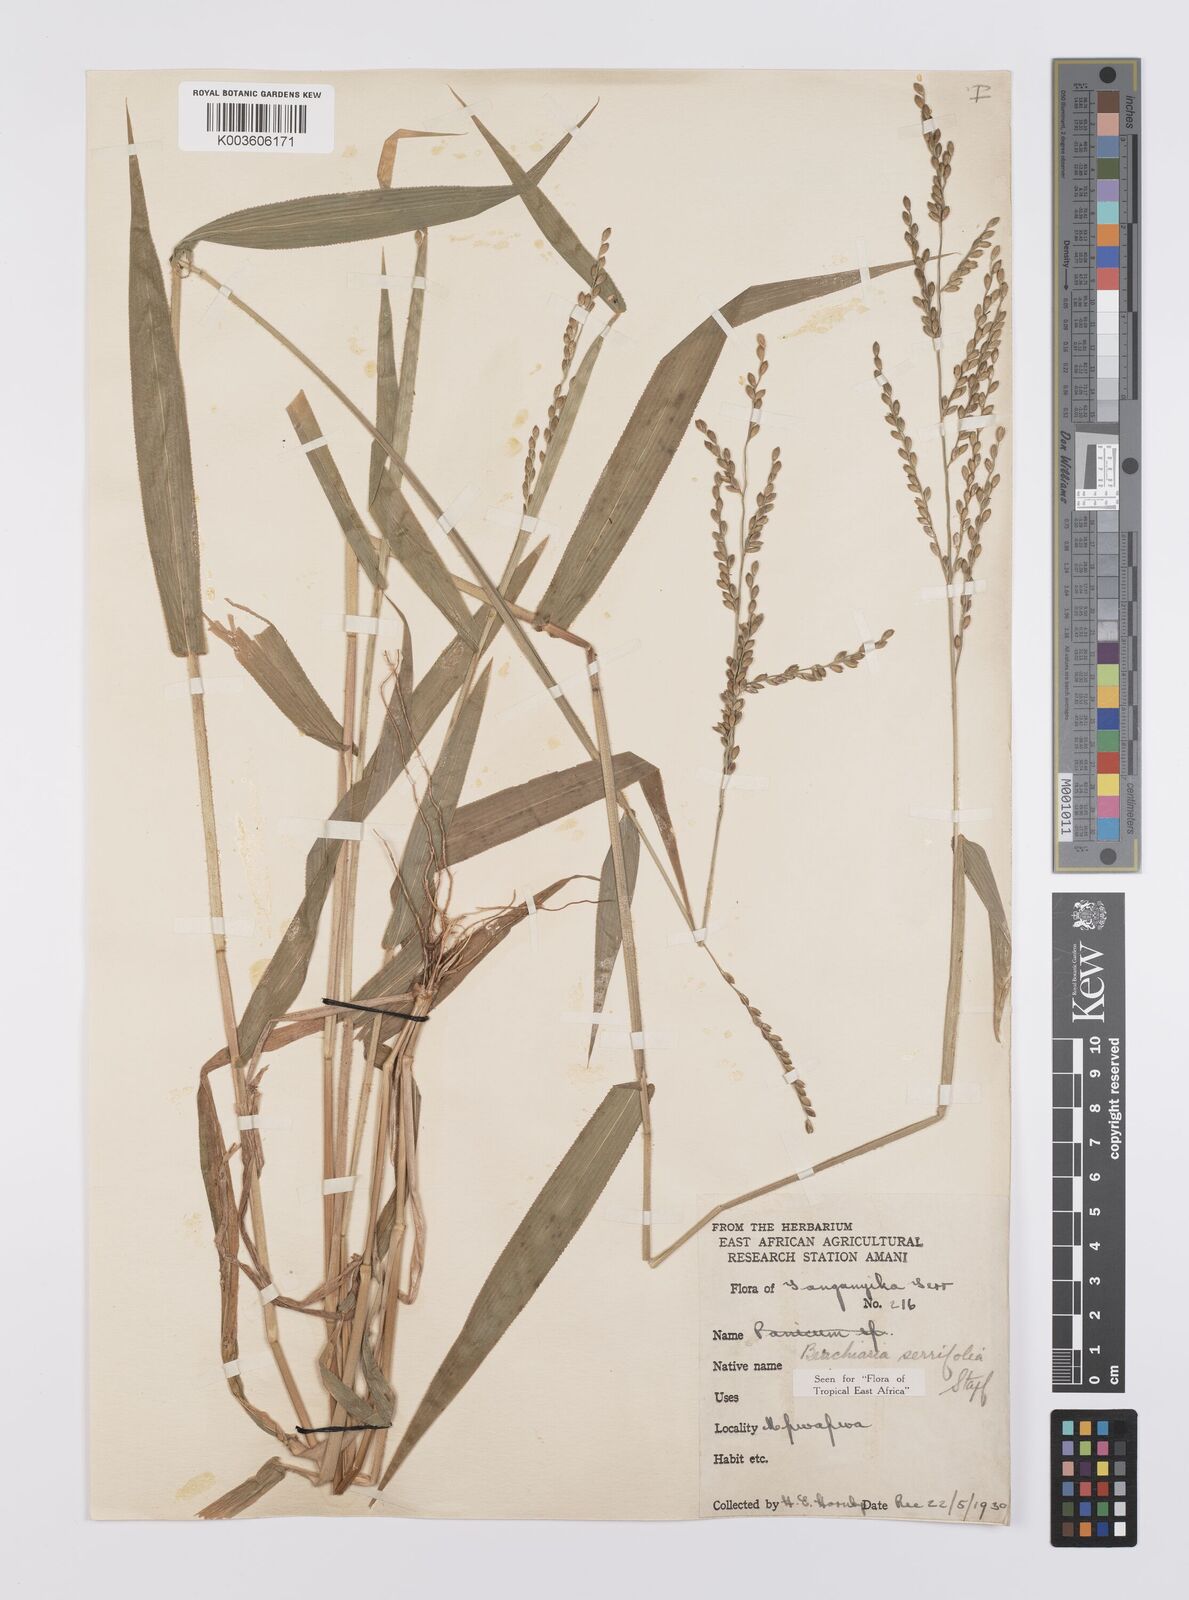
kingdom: Plantae
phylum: Tracheophyta
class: Liliopsida
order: Poales
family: Poaceae
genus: Urochloa
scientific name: Urochloa serrifolia
